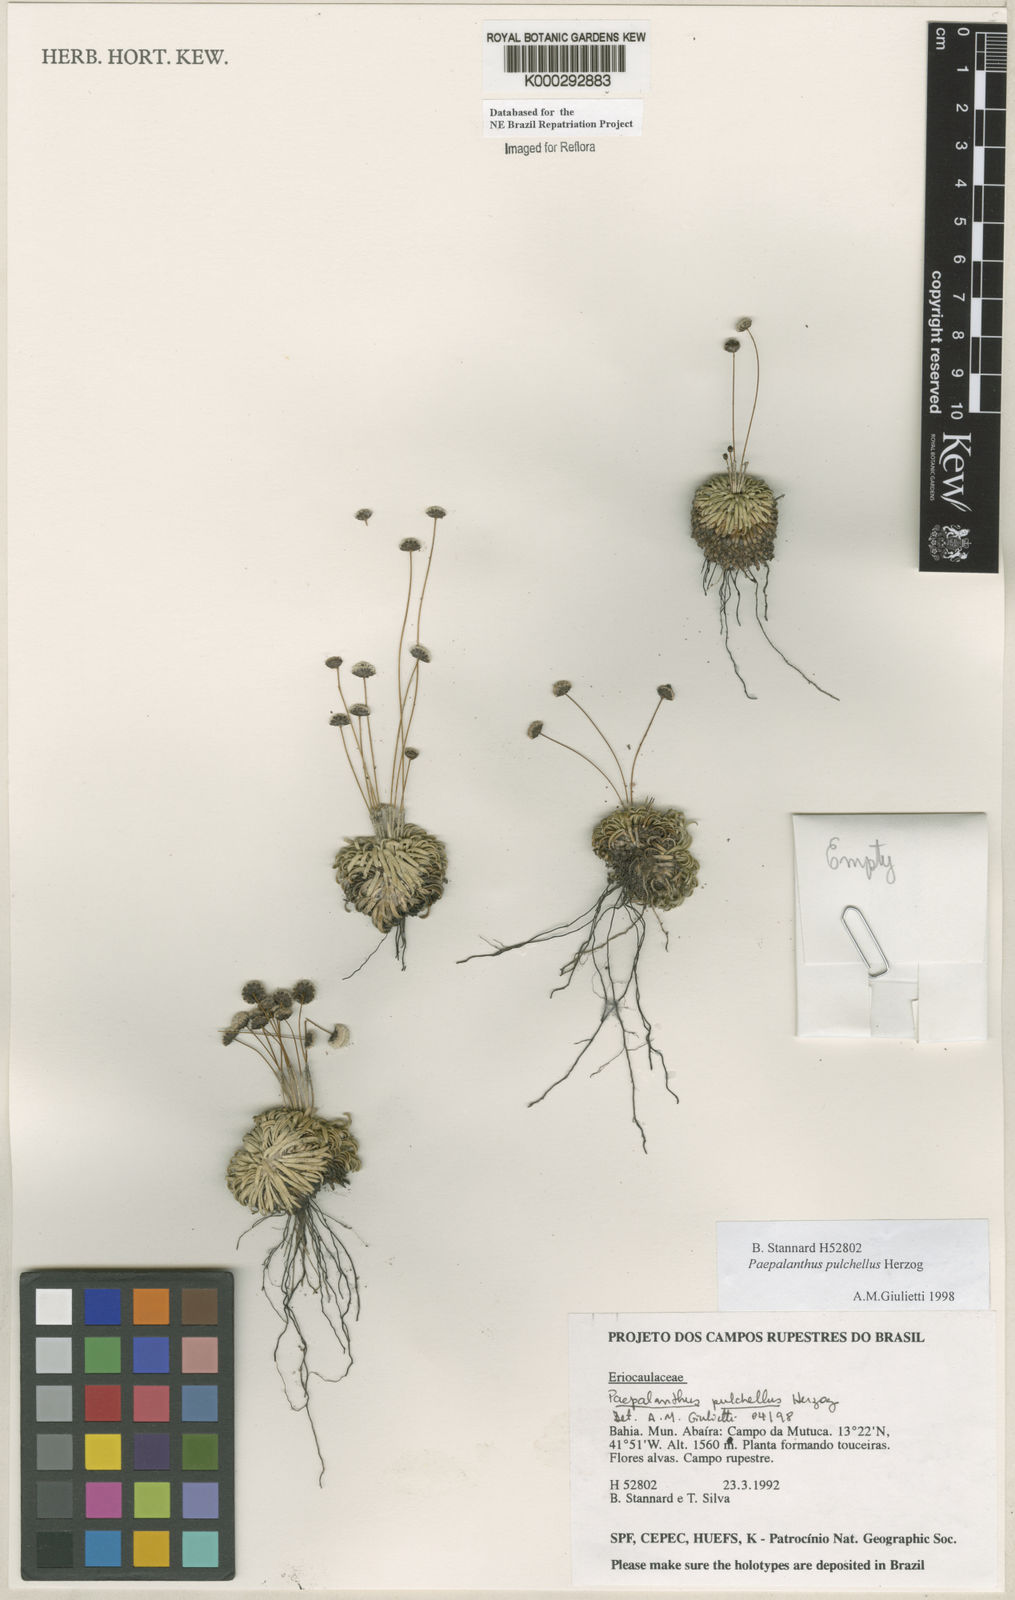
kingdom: Plantae
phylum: Tracheophyta
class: Liliopsida
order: Poales
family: Eriocaulaceae
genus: Paepalanthus
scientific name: Paepalanthus pulchellus
